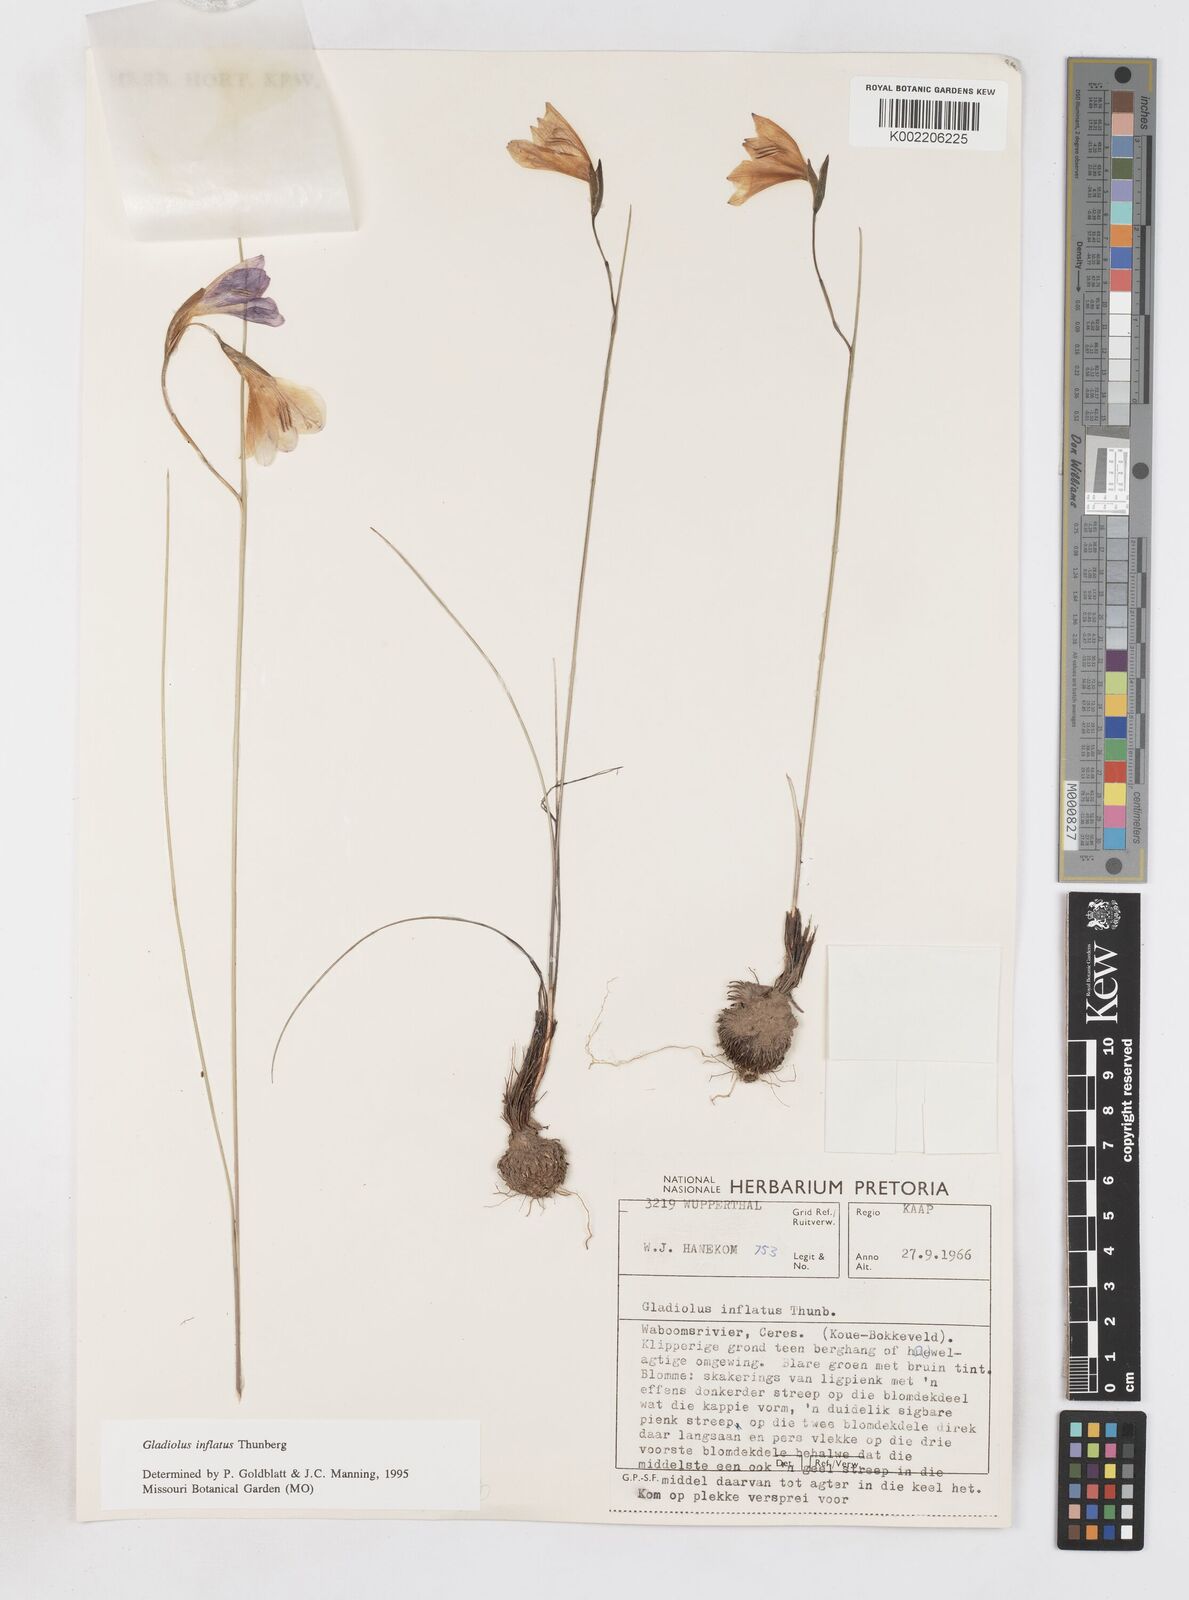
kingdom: Plantae
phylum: Tracheophyta
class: Liliopsida
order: Asparagales
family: Iridaceae
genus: Gladiolus
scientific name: Gladiolus inflatus
